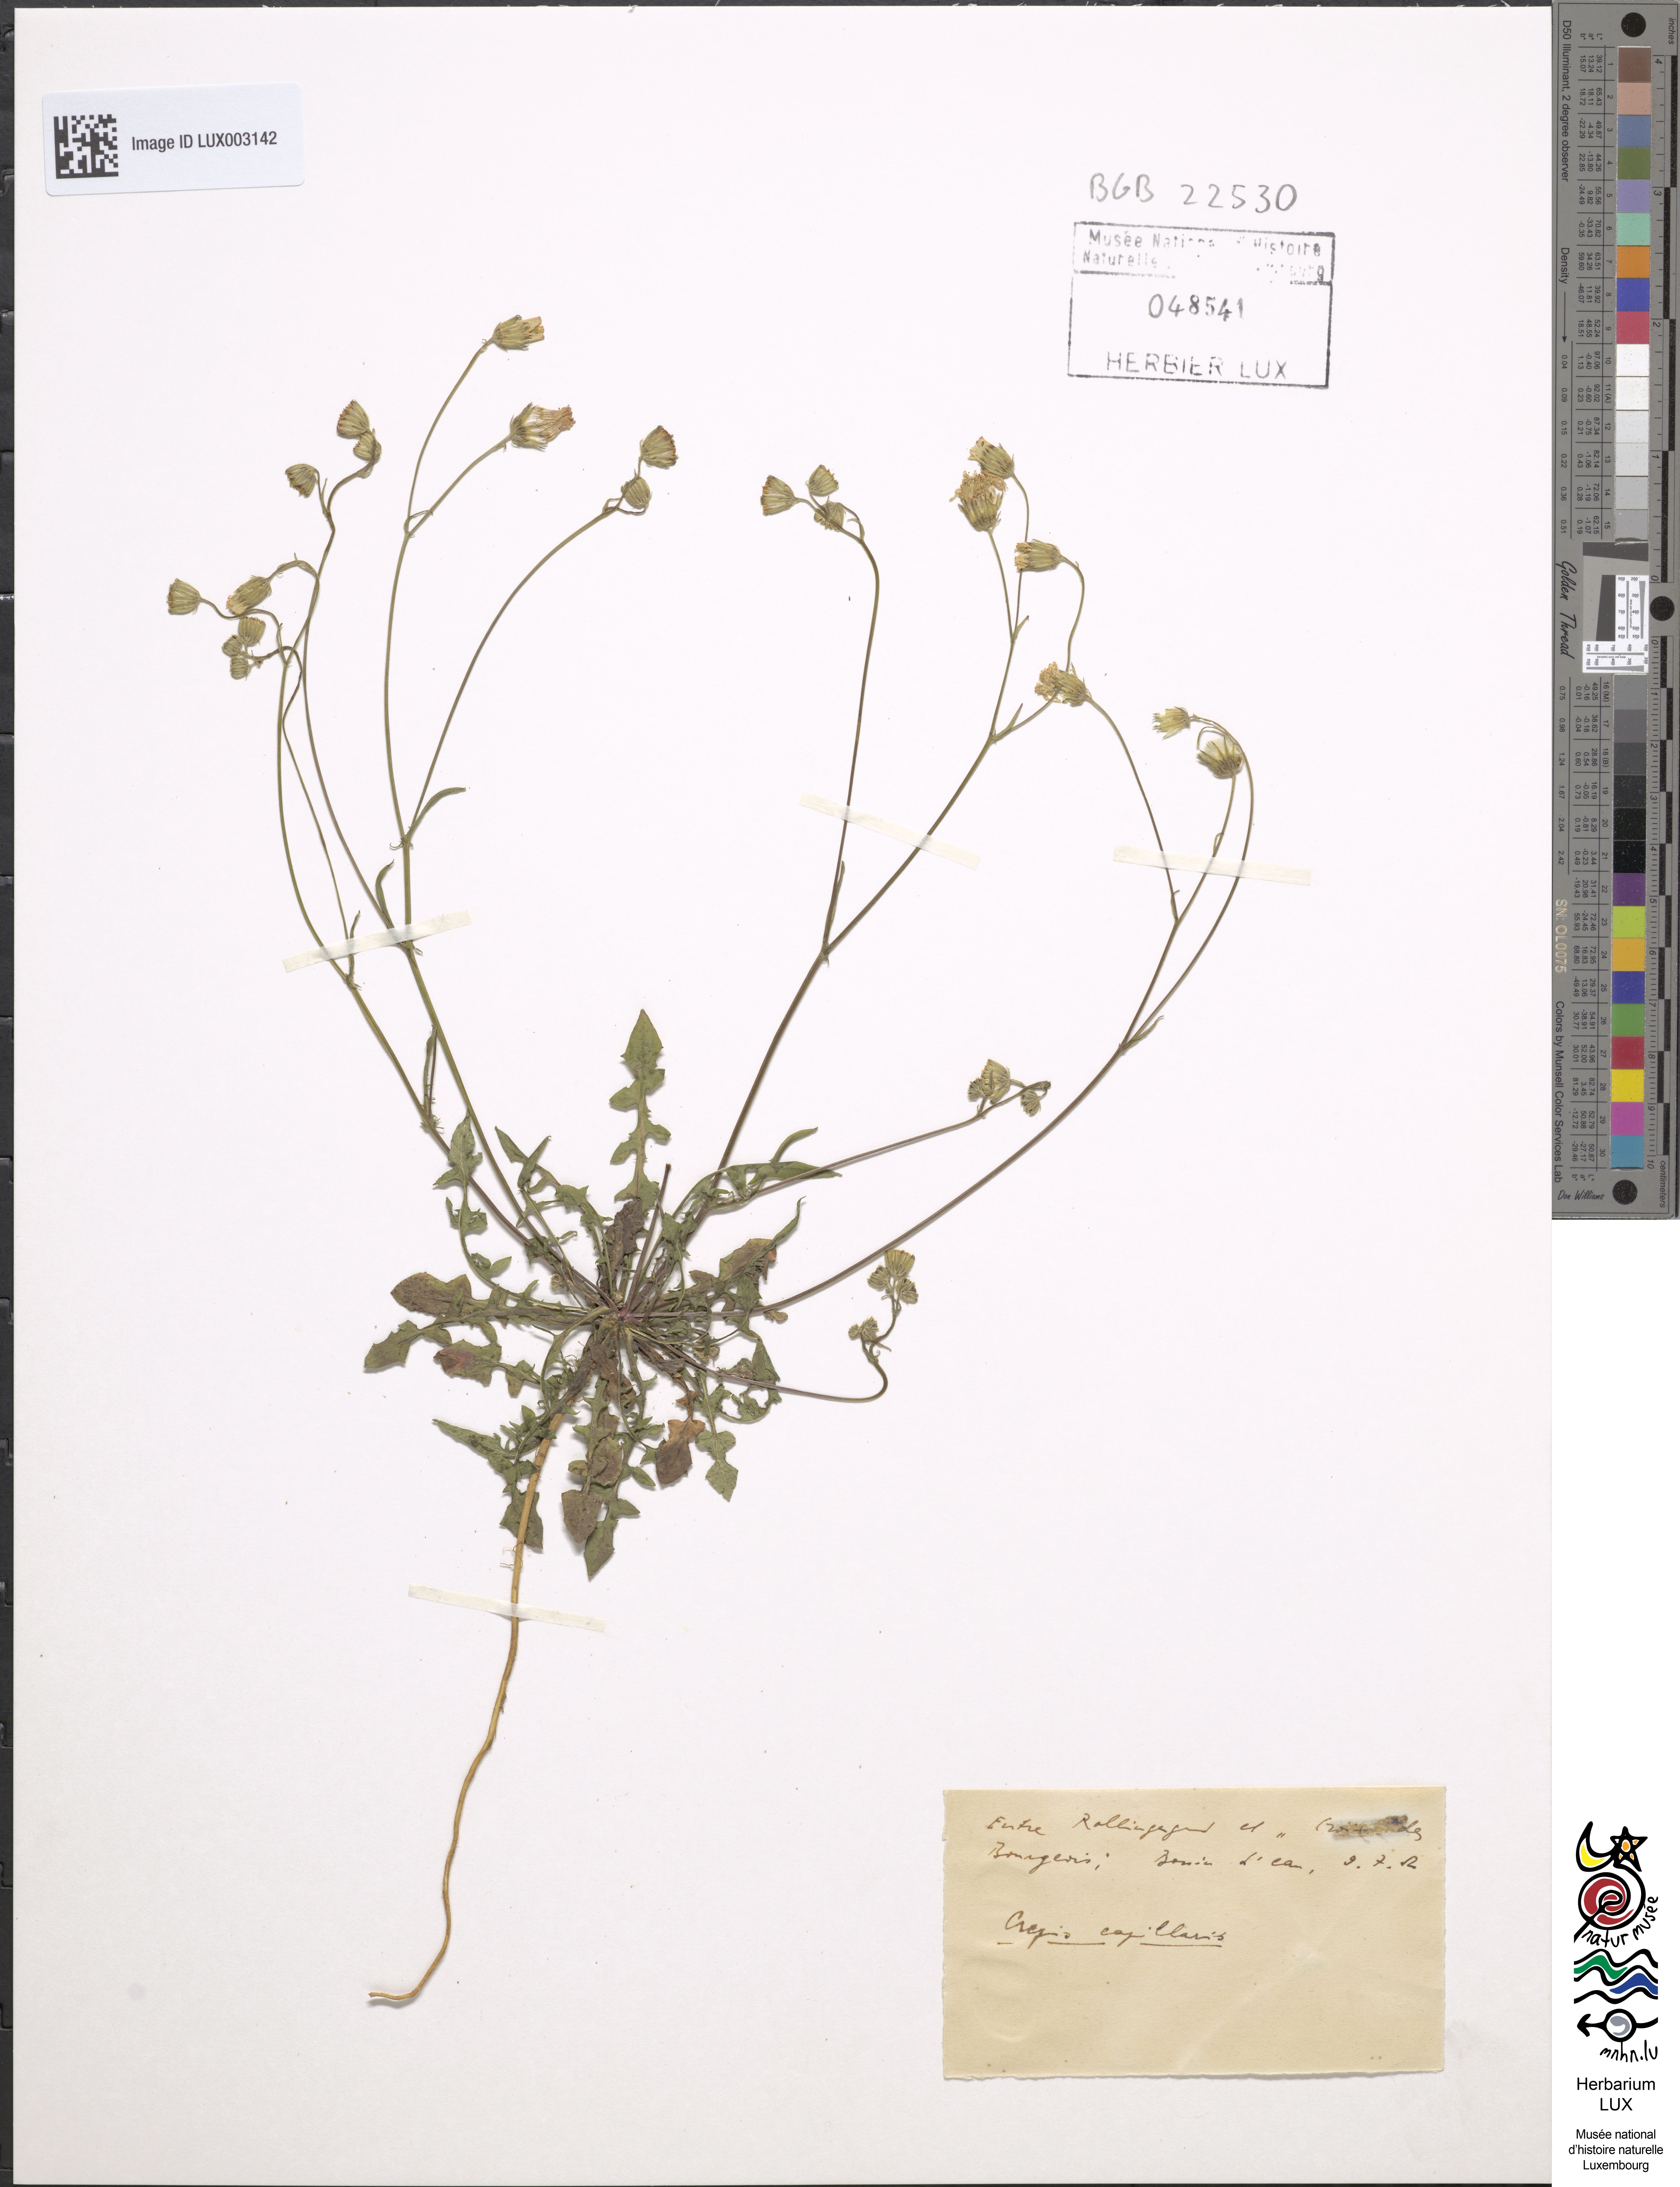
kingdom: Plantae
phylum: Tracheophyta
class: Magnoliopsida
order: Asterales
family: Asteraceae
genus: Crepis
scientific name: Crepis capillaris
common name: Smooth hawksbeard
